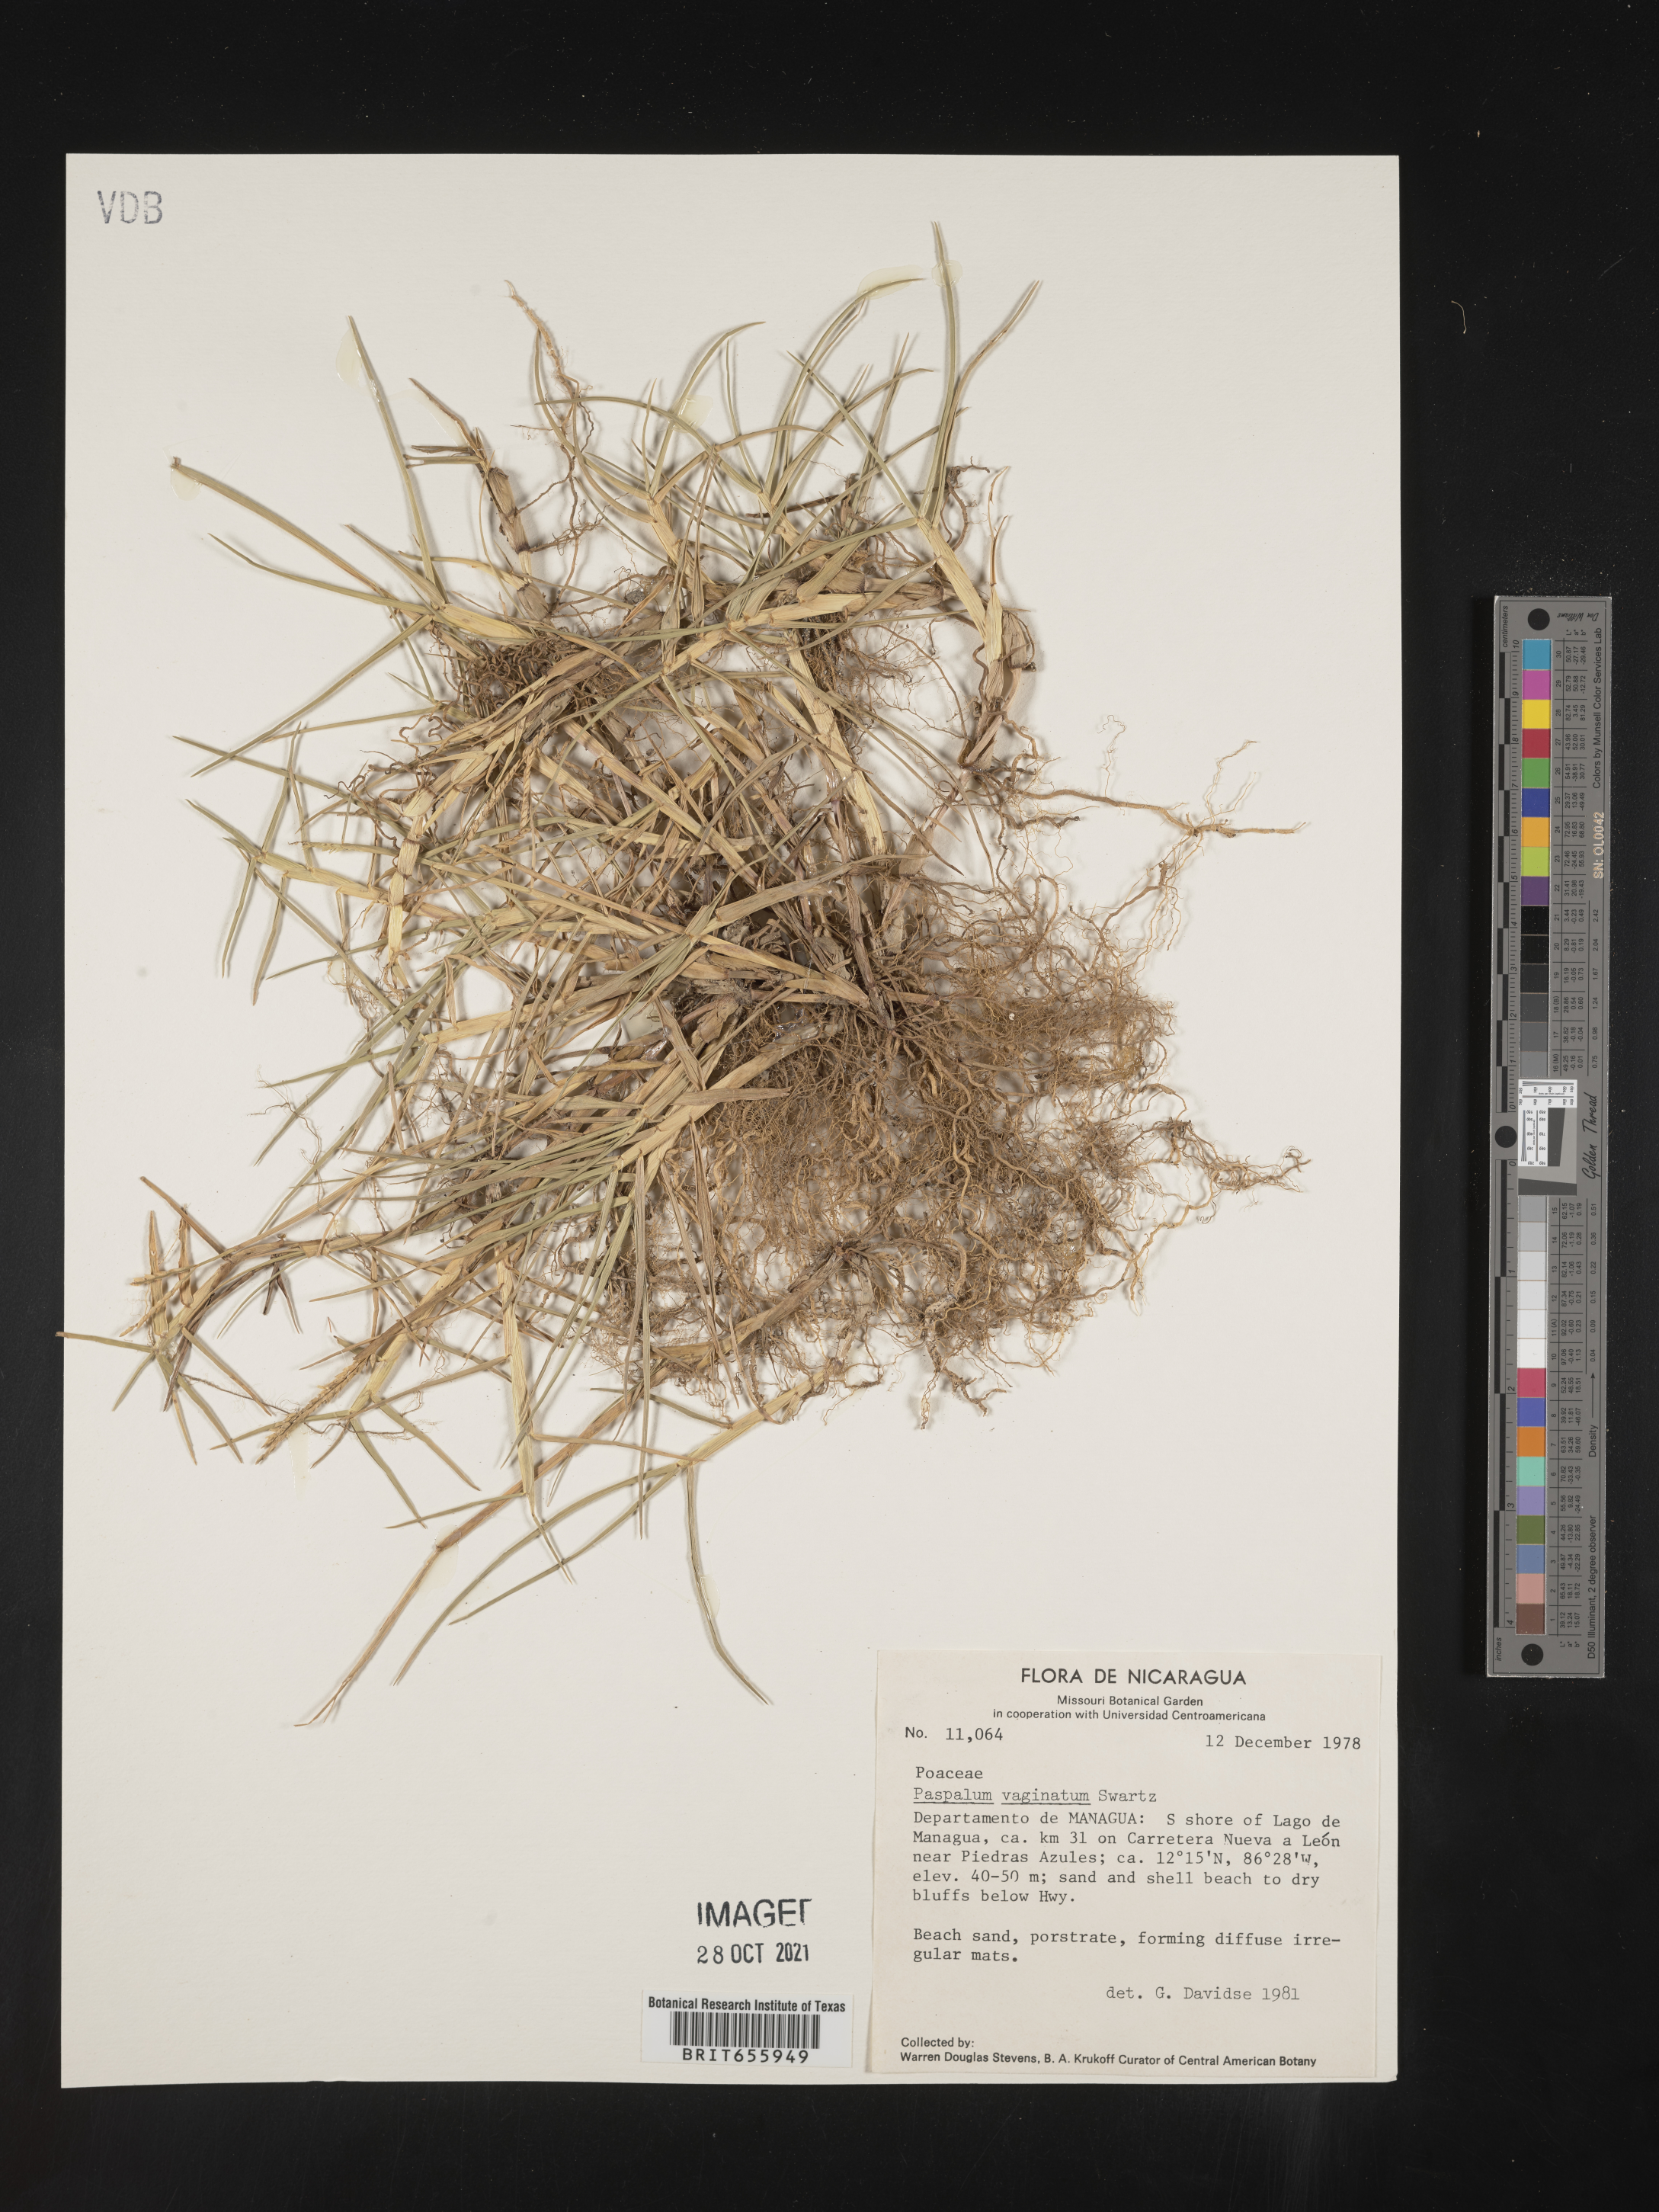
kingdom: Plantae
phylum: Tracheophyta
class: Liliopsida
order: Poales
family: Poaceae
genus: Paspalum
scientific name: Paspalum
